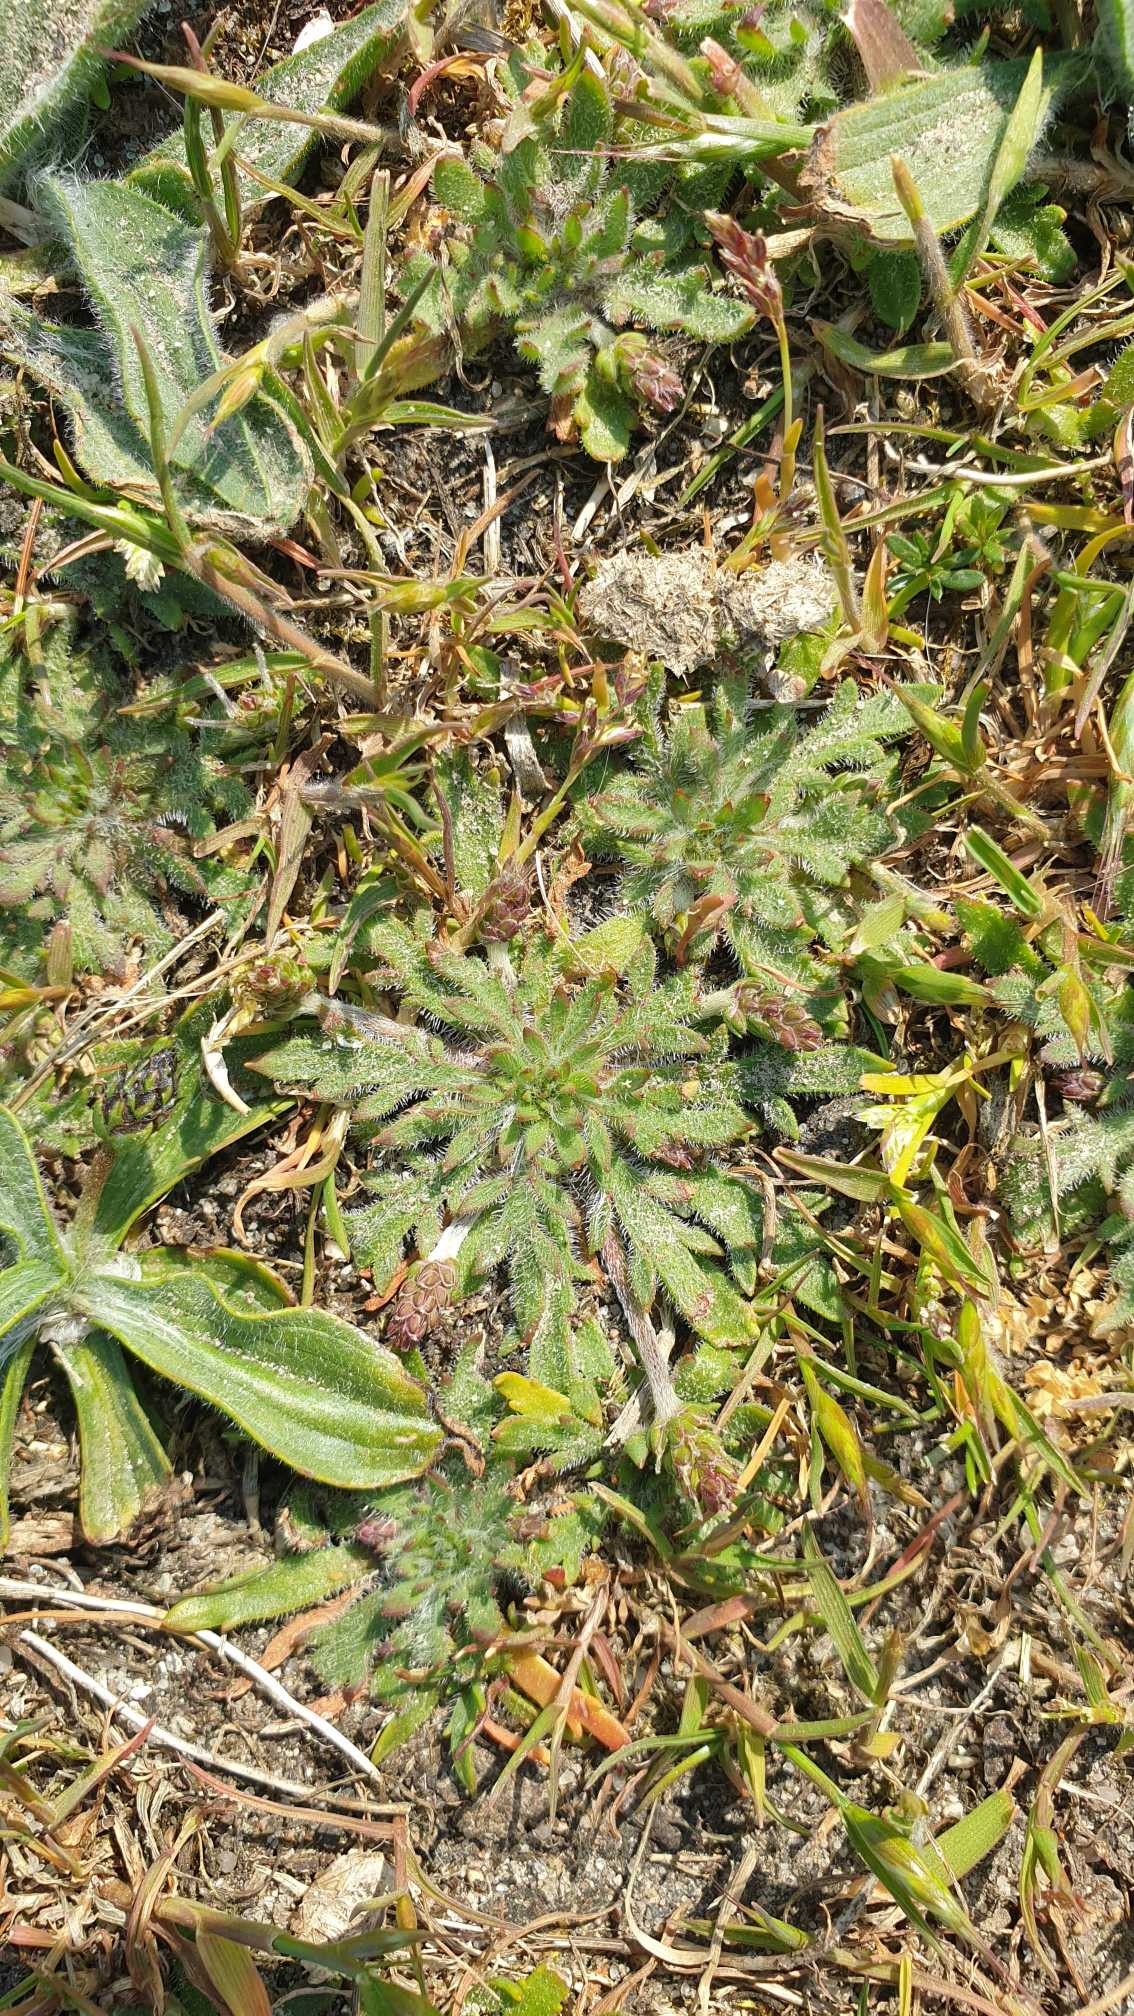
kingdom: Plantae
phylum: Tracheophyta
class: Magnoliopsida
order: Lamiales
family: Plantaginaceae
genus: Plantago
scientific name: Plantago coronopus
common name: Fliget vejbred
